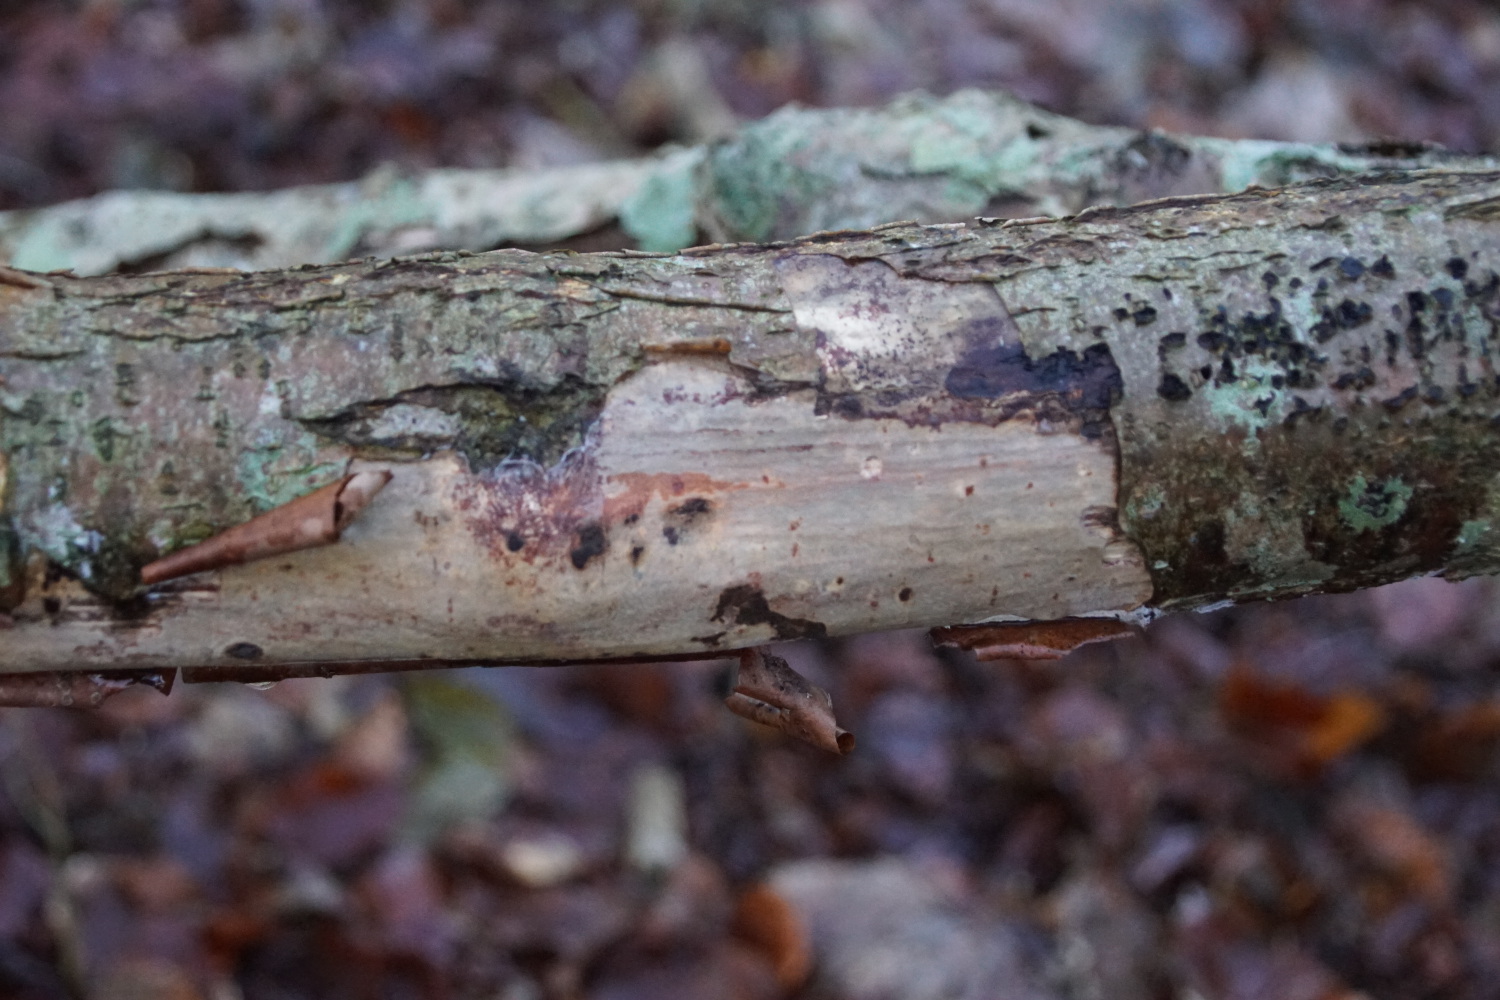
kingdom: Fungi
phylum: Basidiomycota
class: Agaricomycetes
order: Corticiales
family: Vuilleminiaceae
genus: Vuilleminia
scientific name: Vuilleminia coryli
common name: hassel-barksprænger
